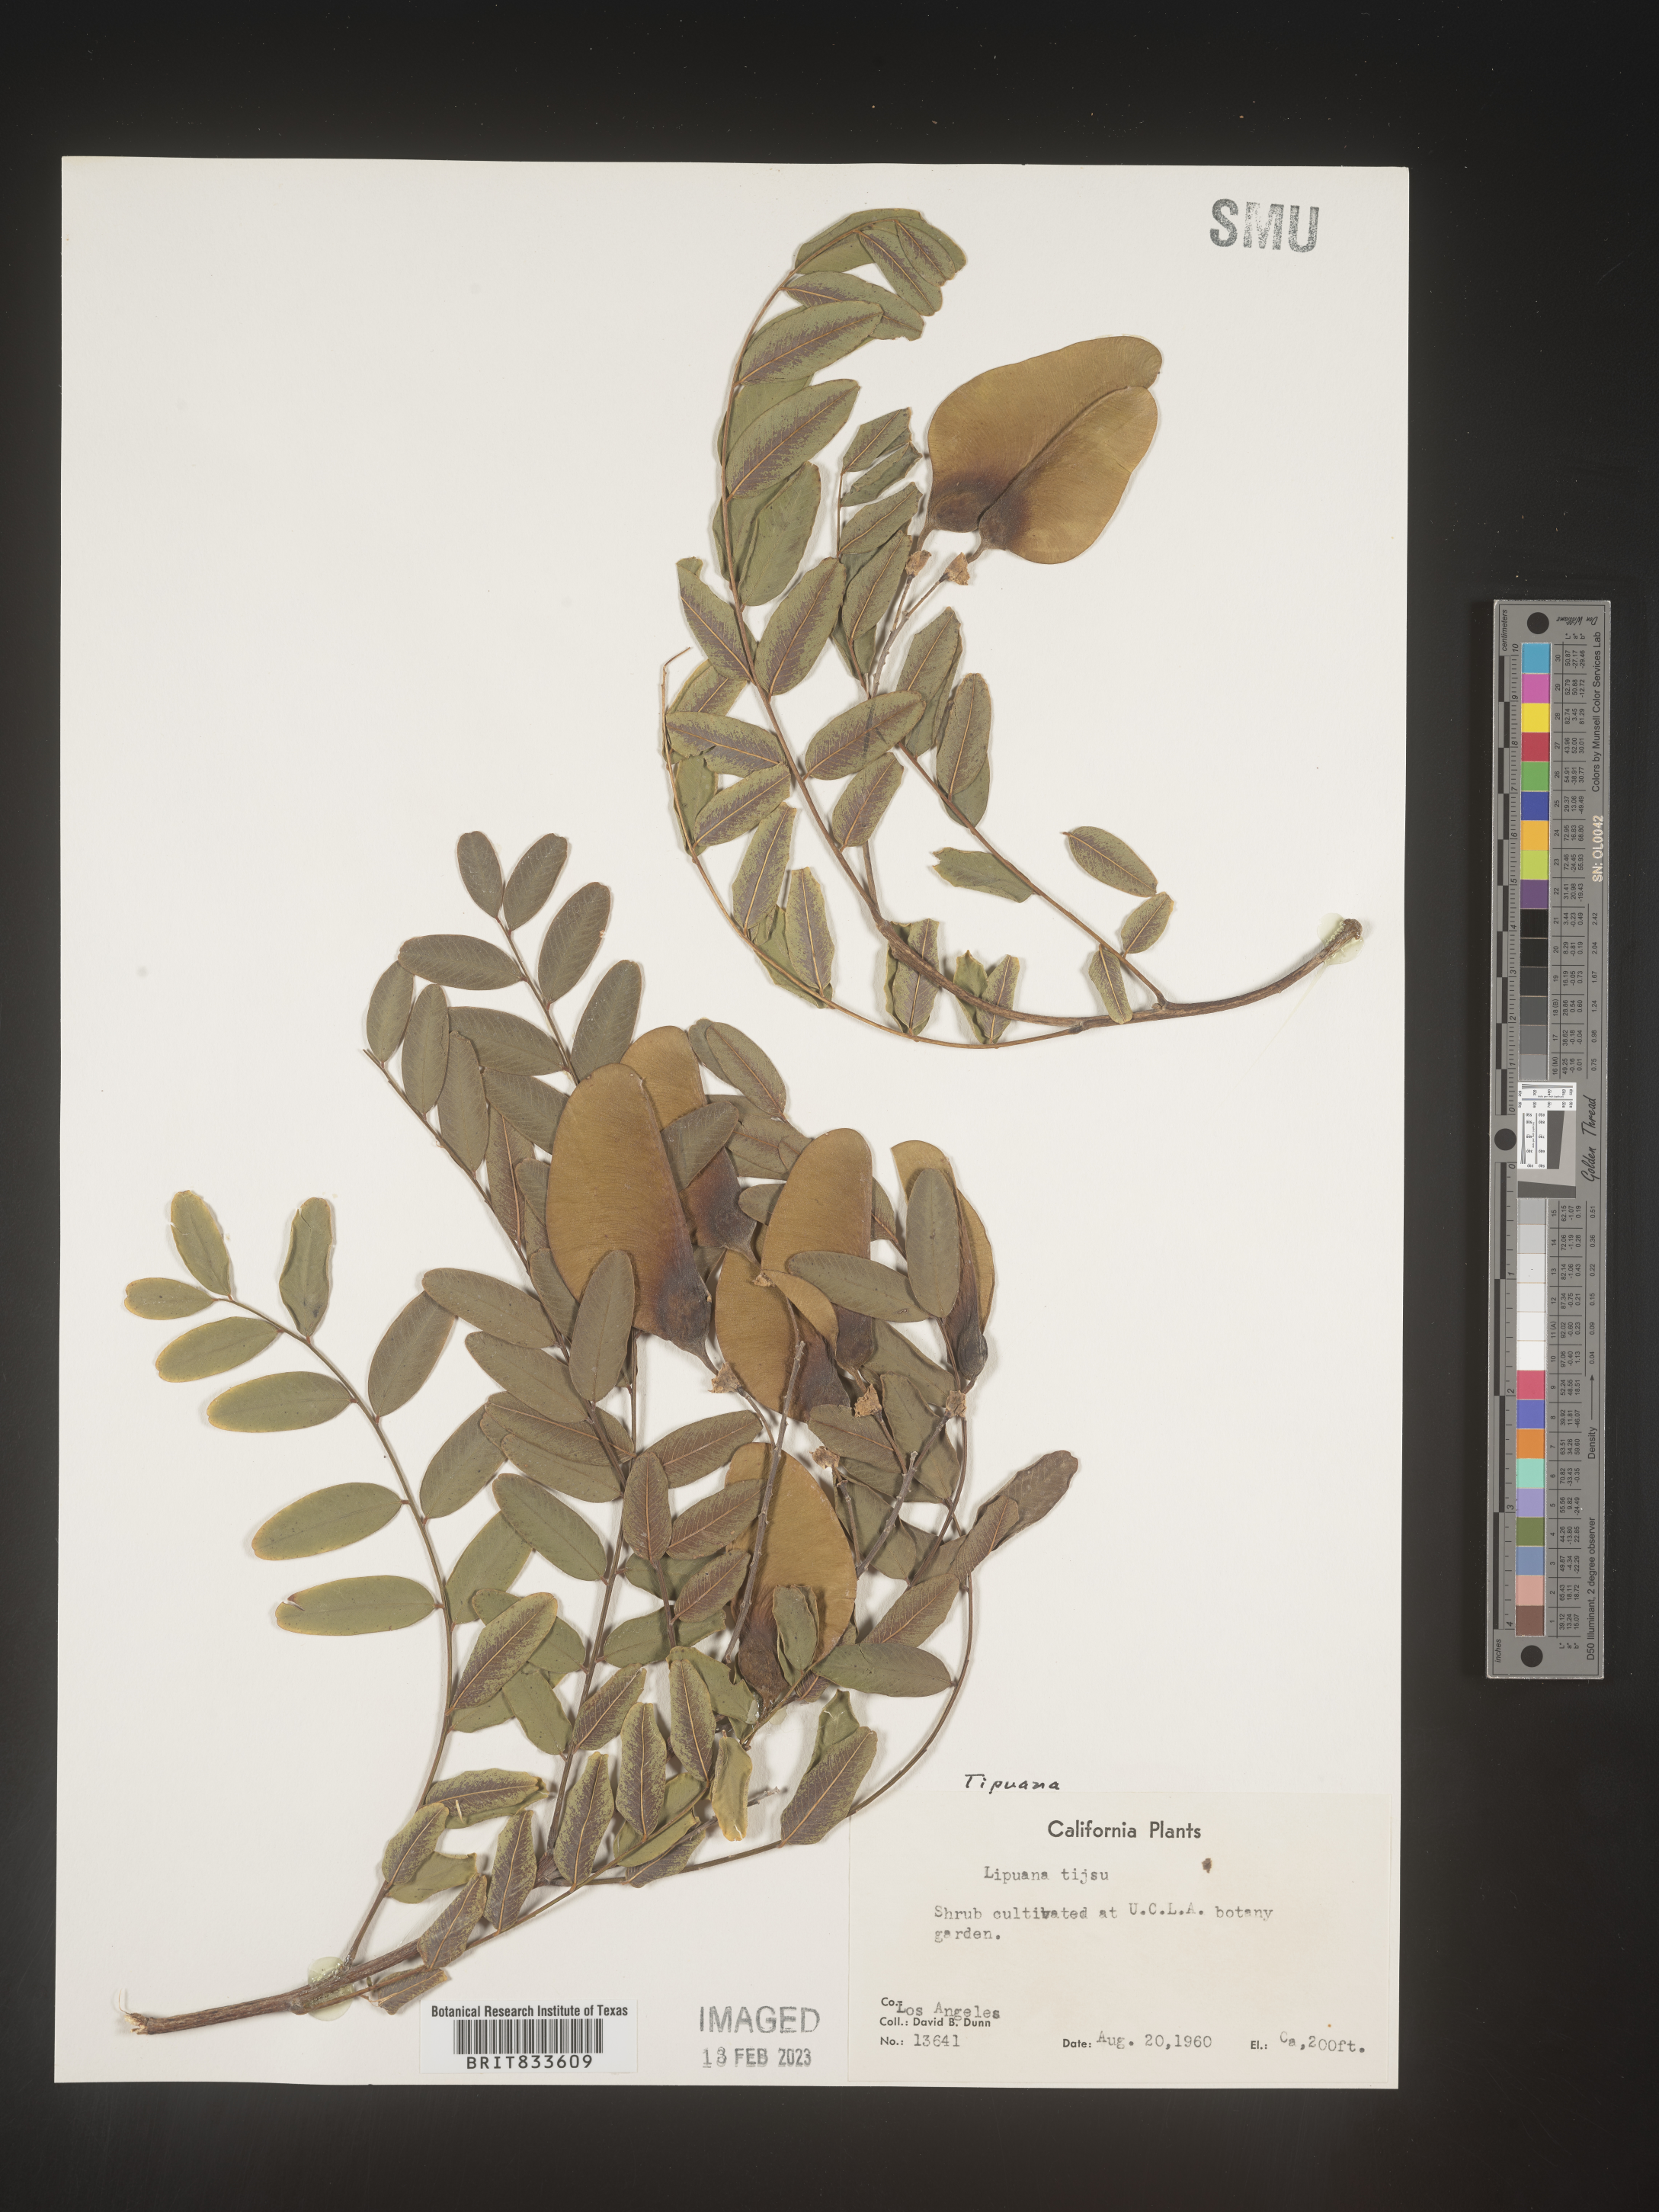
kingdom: Plantae
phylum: Tracheophyta
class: Magnoliopsida
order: Fabales
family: Fabaceae
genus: Tipuana
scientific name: Tipuana
